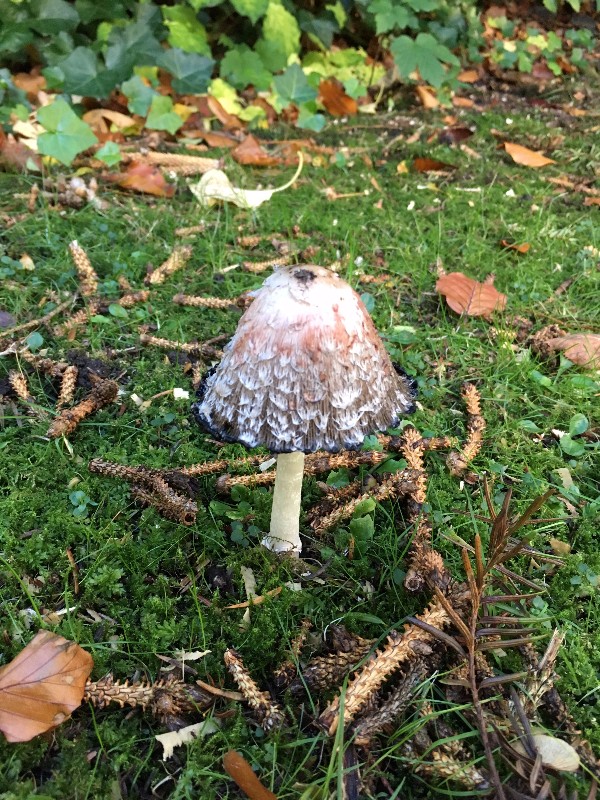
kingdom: Fungi
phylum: Basidiomycota
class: Agaricomycetes
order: Agaricales
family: Agaricaceae
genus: Coprinus
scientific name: Coprinus comatus
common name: stor parykhat
